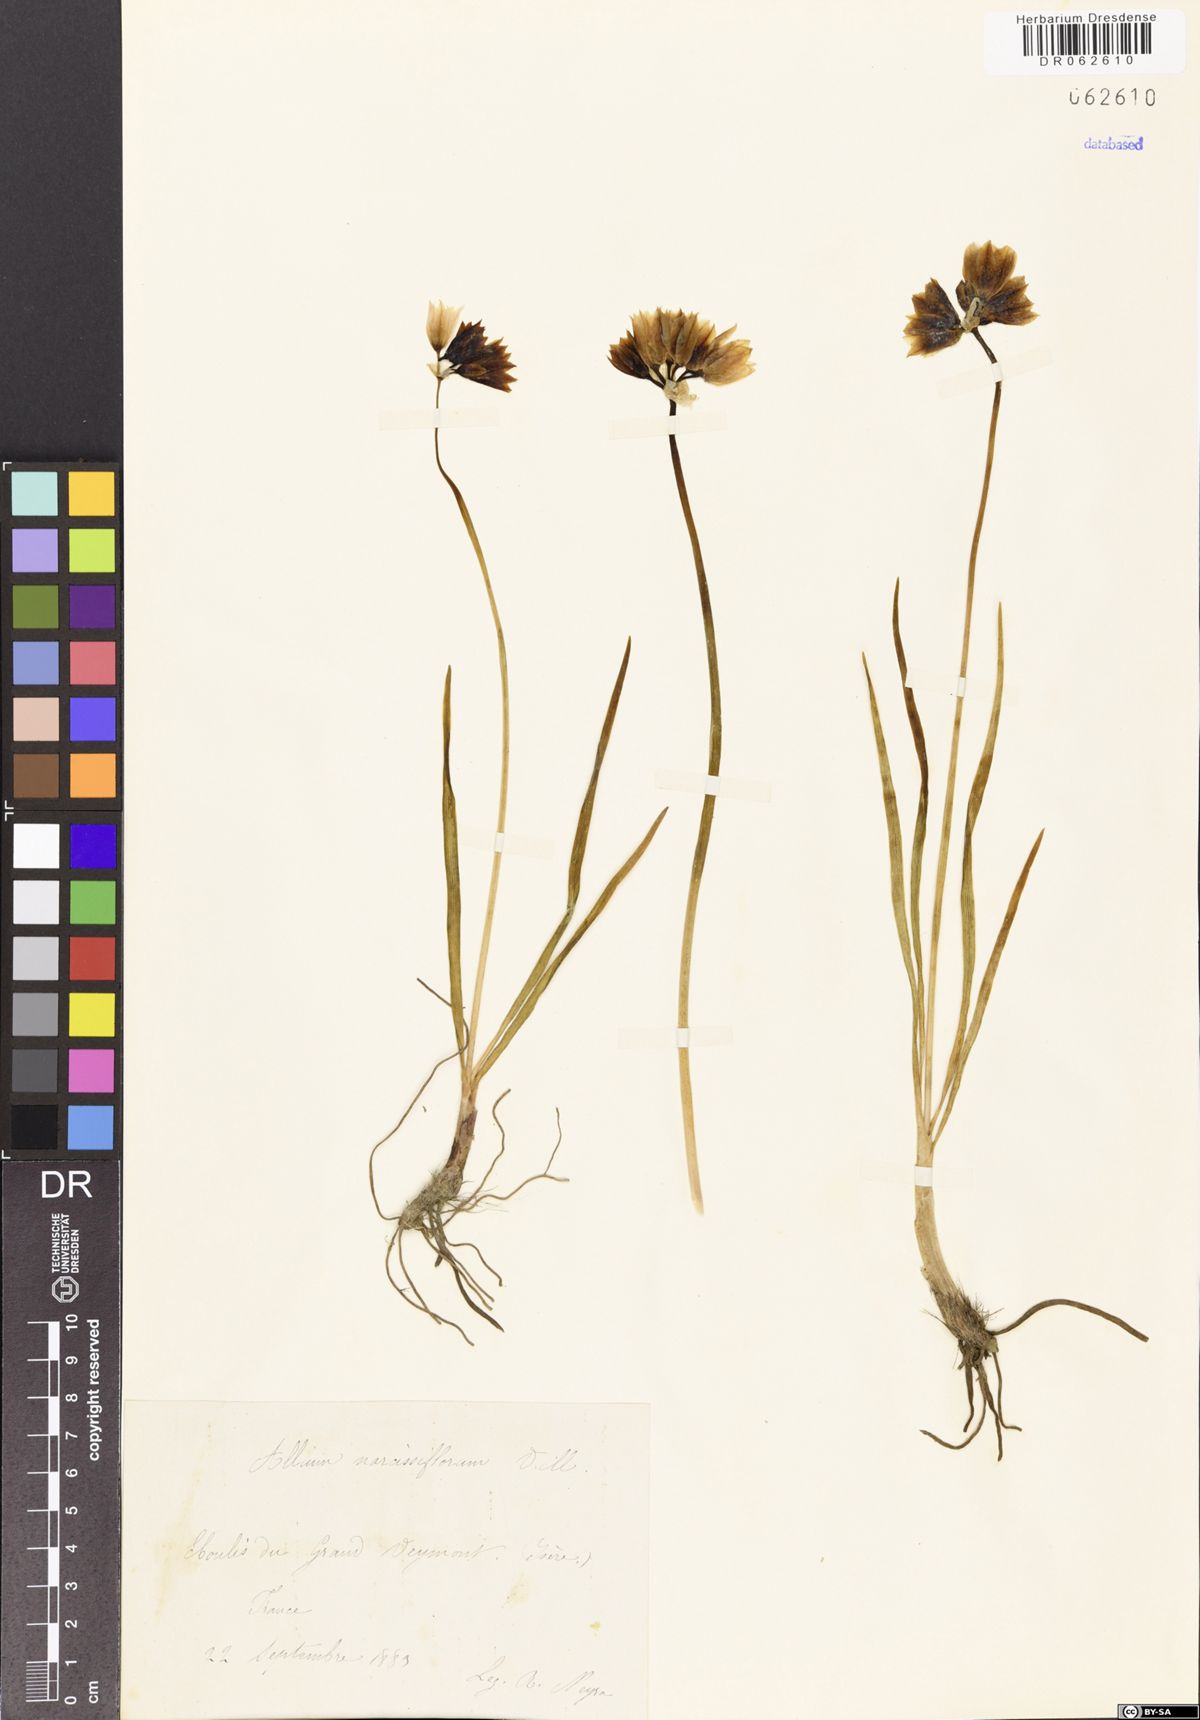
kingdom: Plantae
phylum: Tracheophyta
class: Liliopsida
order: Asparagales
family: Amaryllidaceae
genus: Allium
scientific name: Allium narcissiflorum
